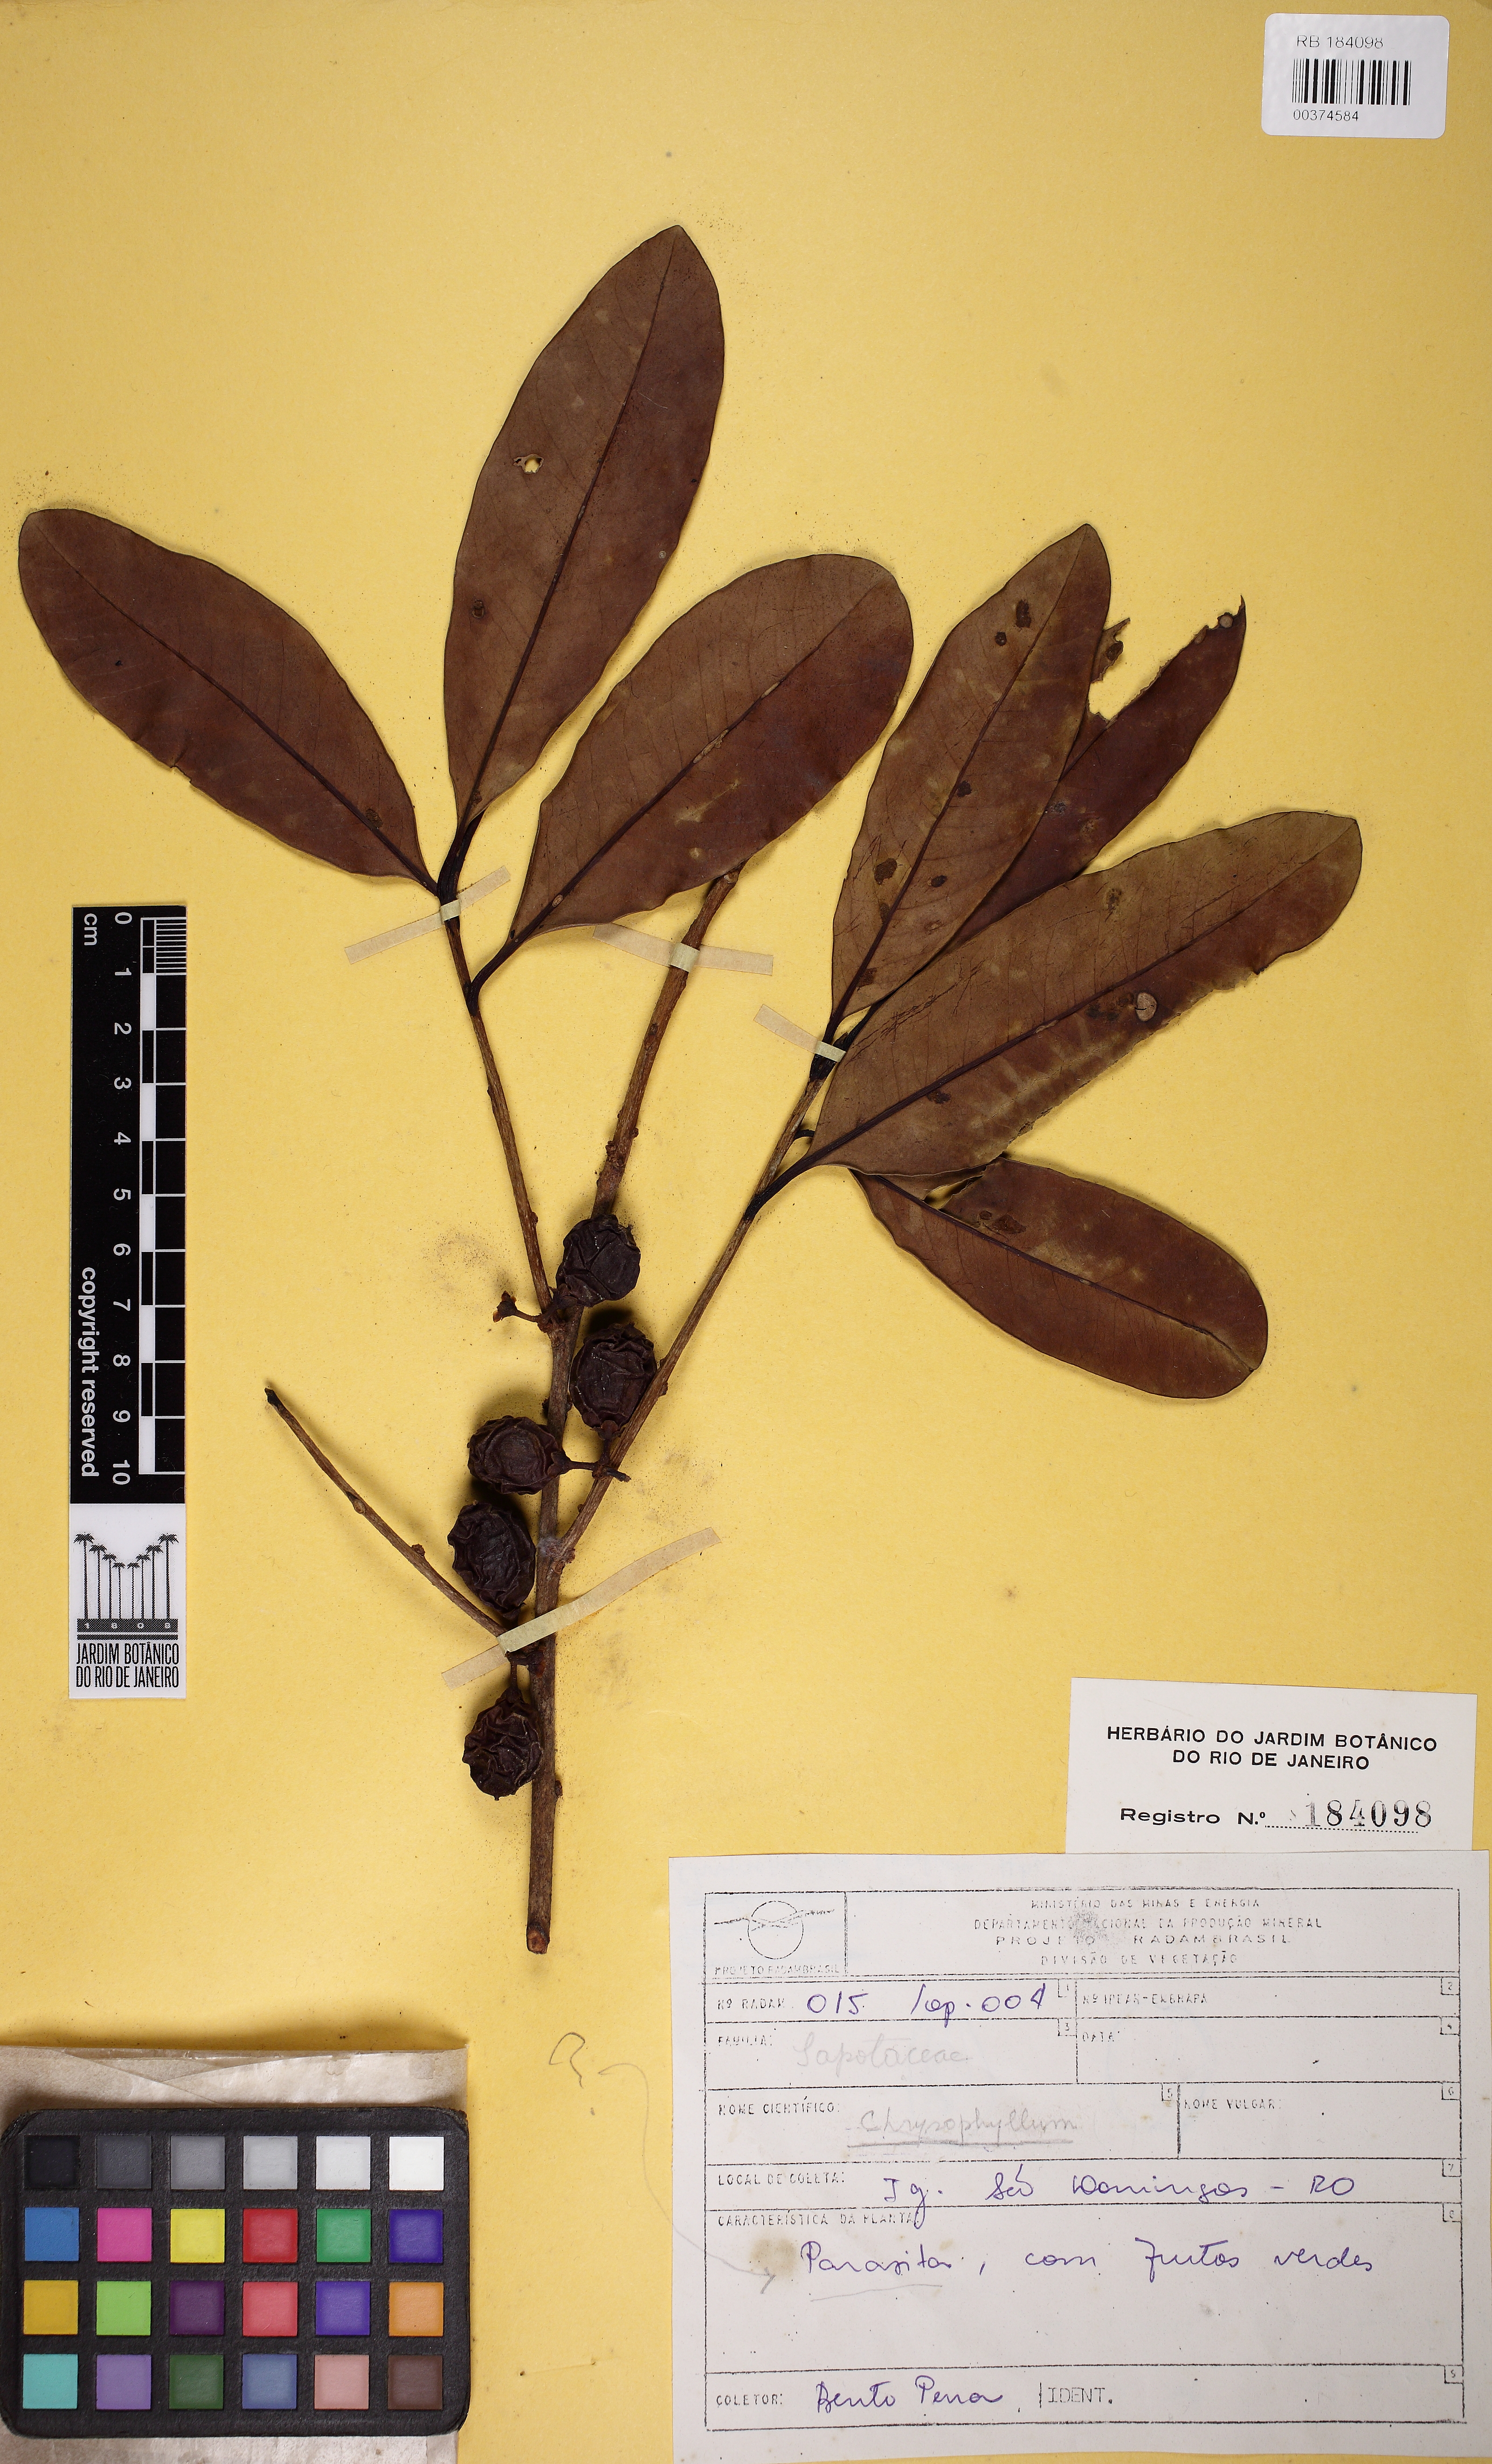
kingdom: Plantae
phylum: Tracheophyta
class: Magnoliopsida
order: Ericales
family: Sapotaceae
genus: Chrysophyllum
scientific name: Chrysophyllum
